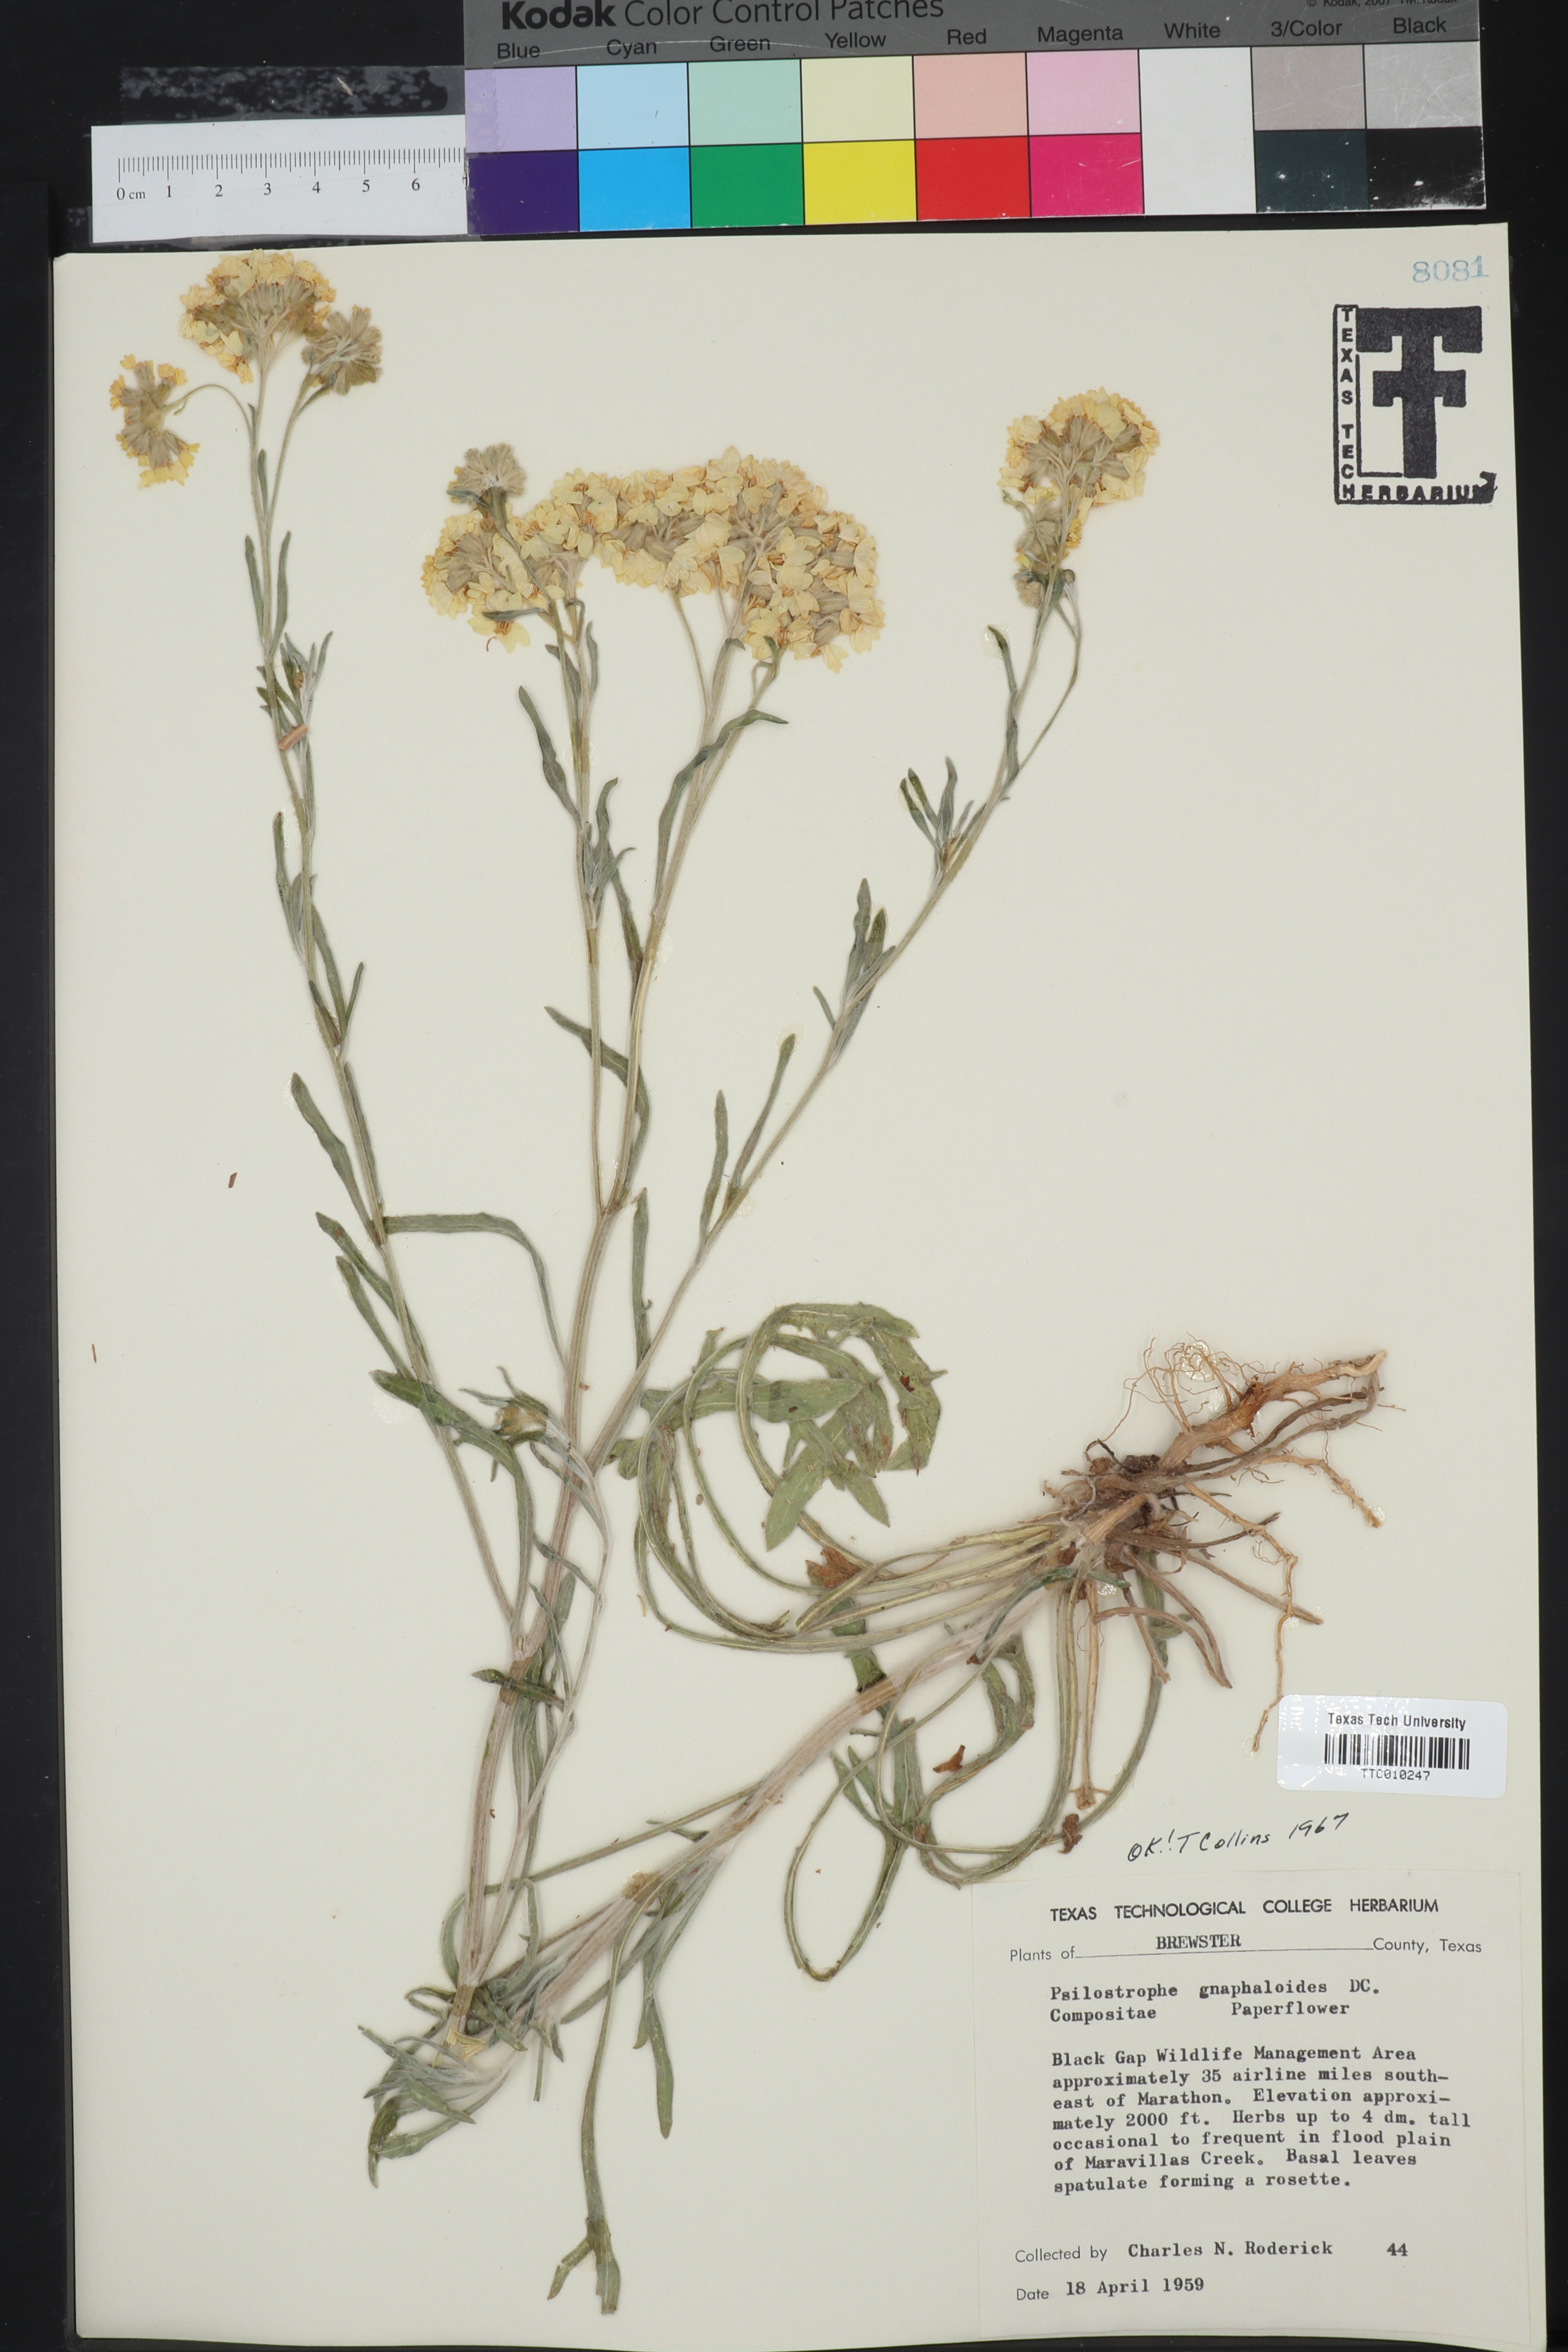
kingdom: Plantae
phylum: Tracheophyta
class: Magnoliopsida
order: Asterales
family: Asteraceae
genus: Psilostrophe
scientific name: Psilostrophe gnaphalioides
